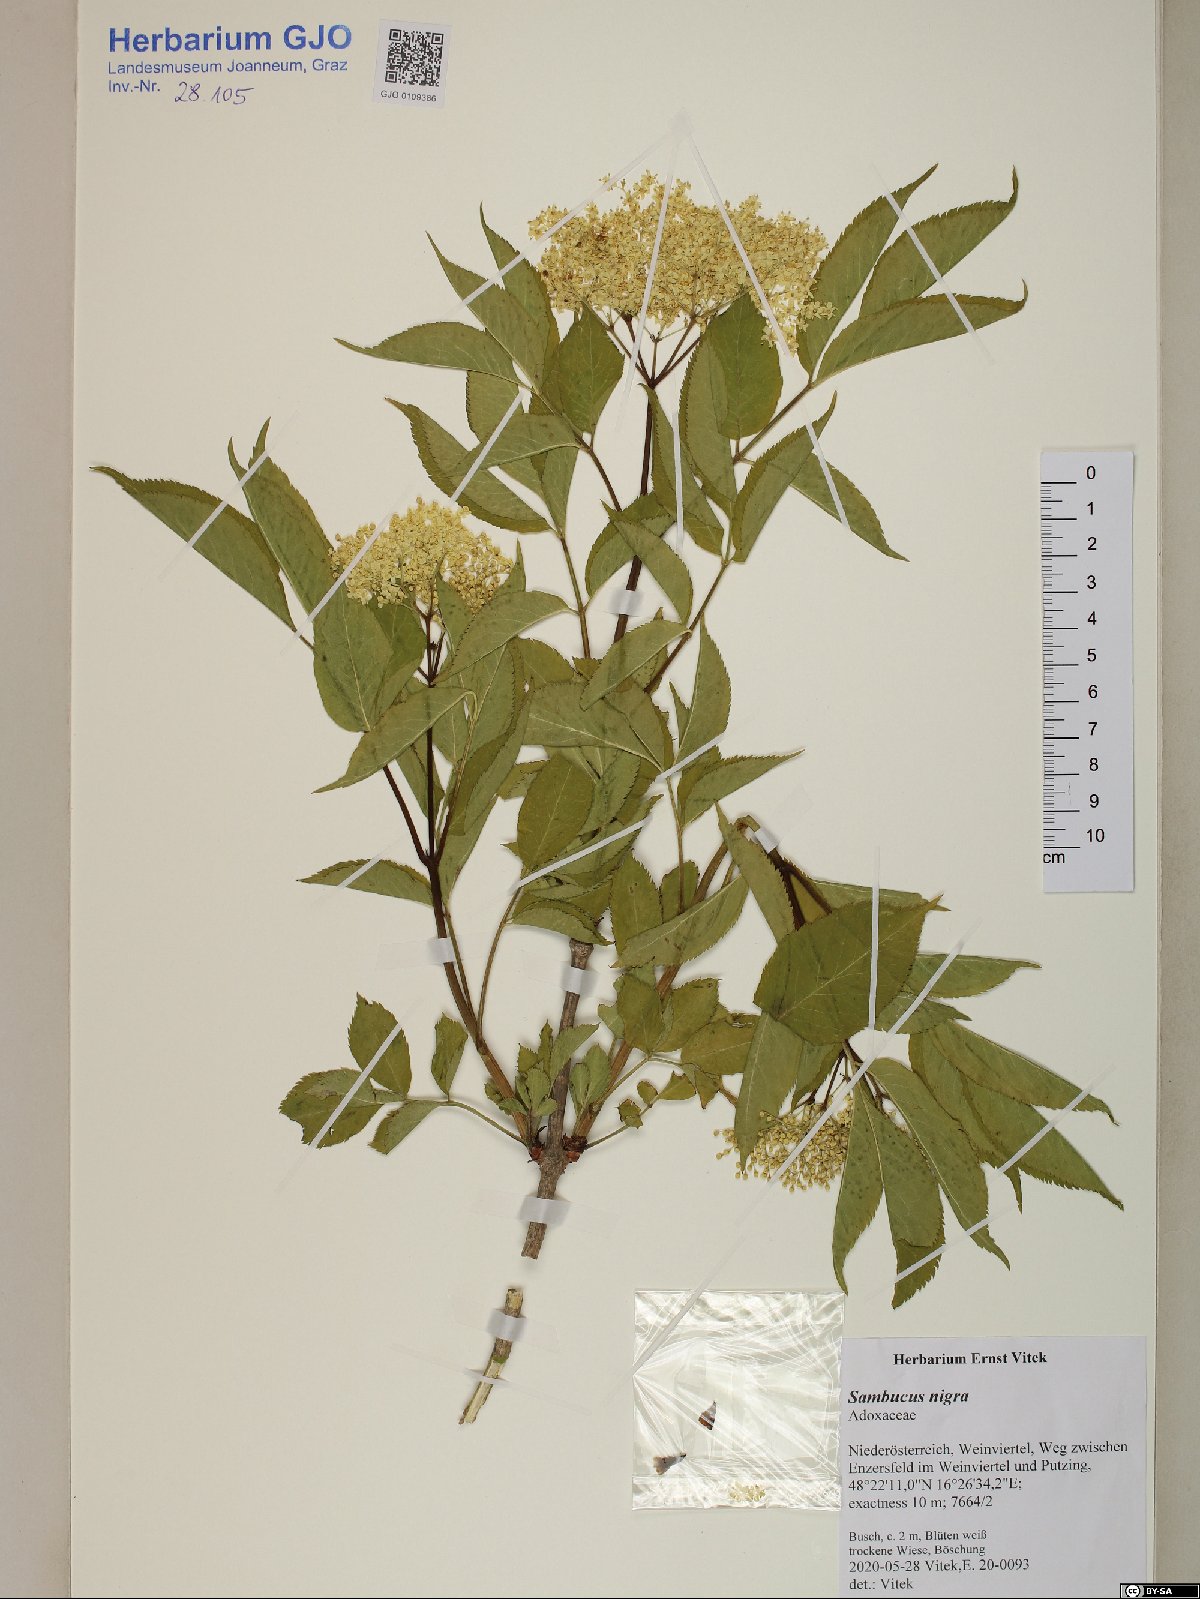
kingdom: Plantae
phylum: Tracheophyta
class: Magnoliopsida
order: Dipsacales
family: Viburnaceae
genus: Sambucus
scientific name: Sambucus nigra
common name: Elder
